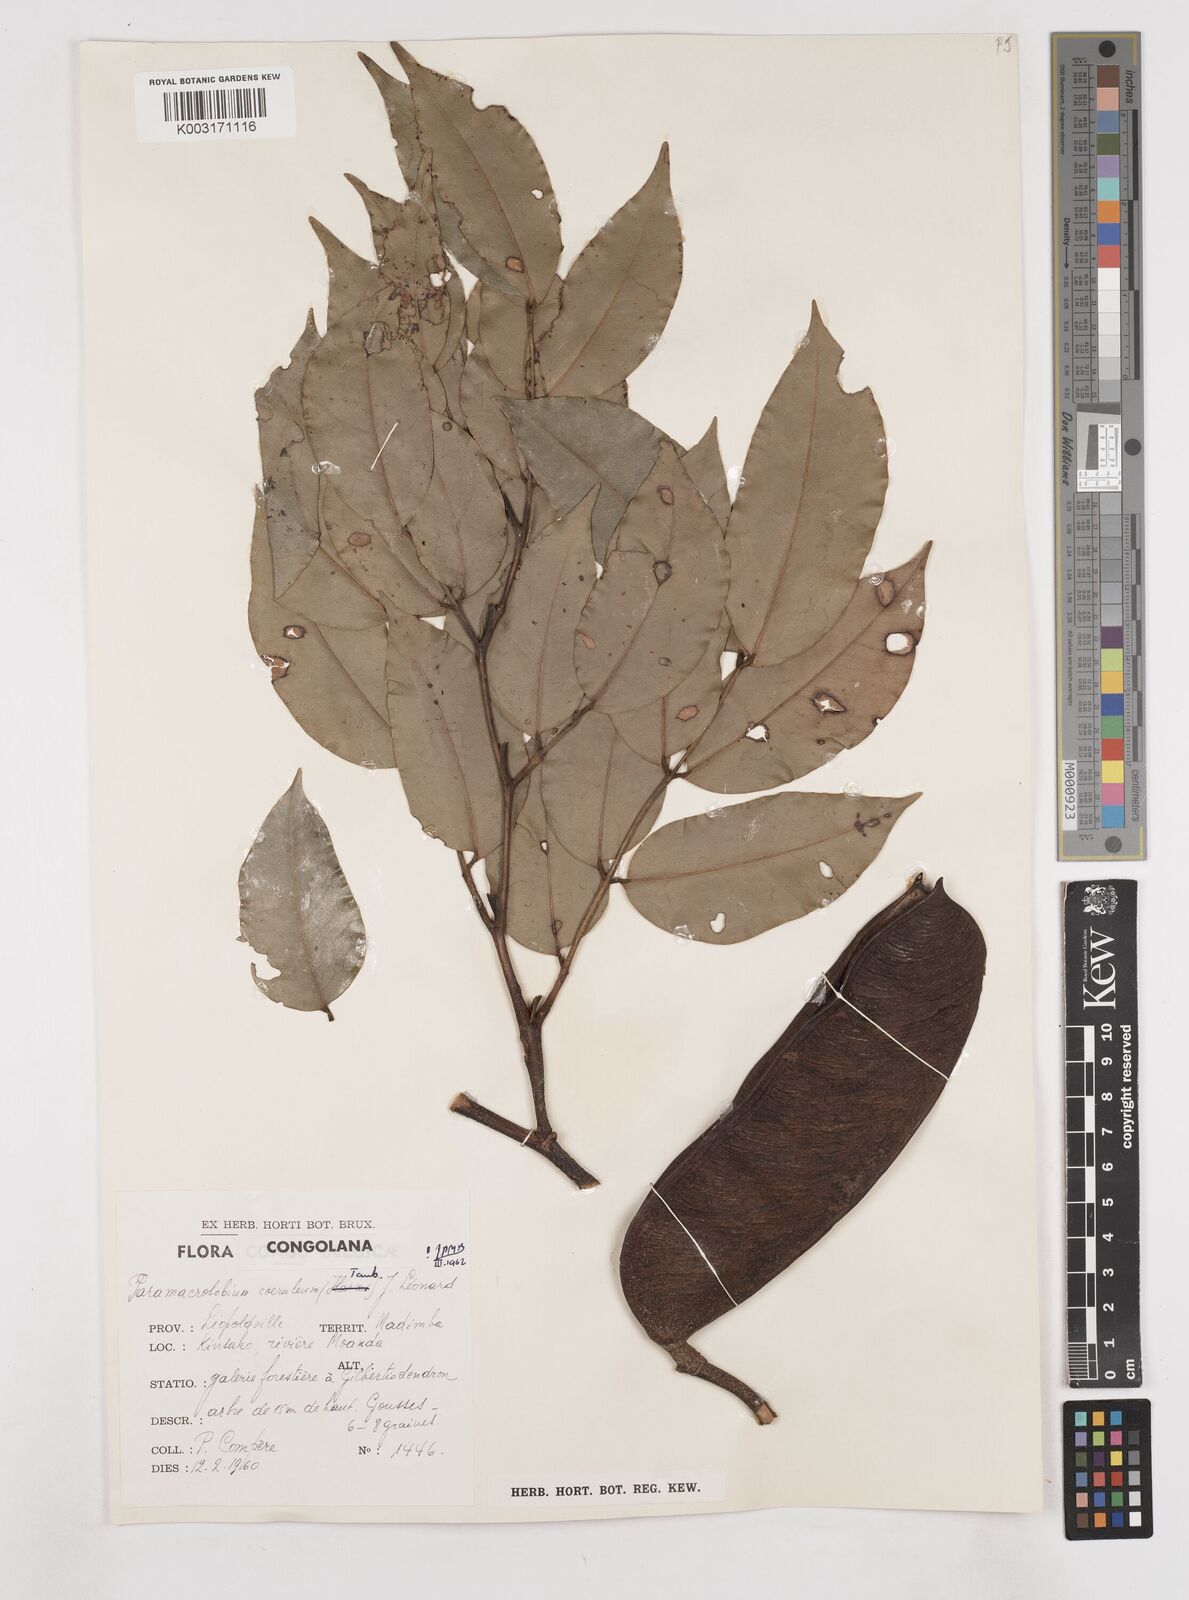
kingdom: Plantae
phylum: Tracheophyta
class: Magnoliopsida
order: Fabales
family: Fabaceae
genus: Paramacrolobium
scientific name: Paramacrolobium coeruleum
